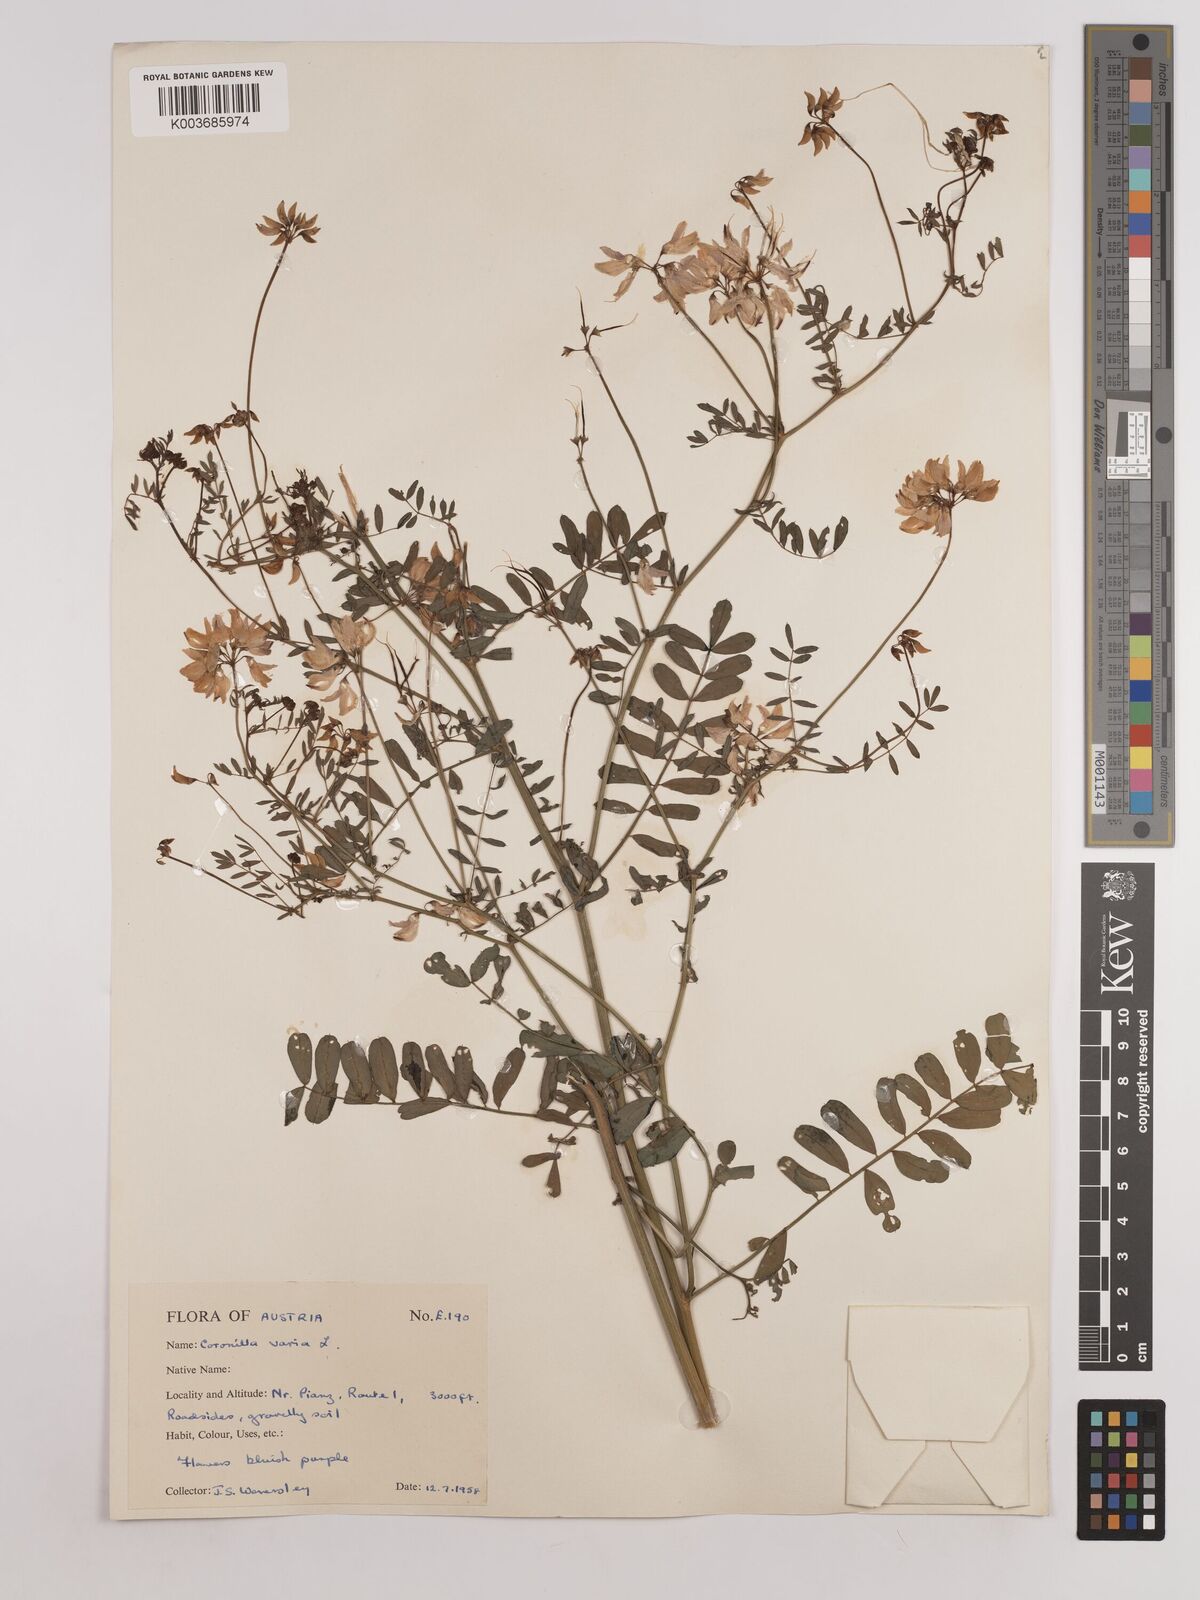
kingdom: Plantae
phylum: Tracheophyta
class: Magnoliopsida
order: Fabales
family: Fabaceae
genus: Coronilla
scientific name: Coronilla varia
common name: Crownvetch
